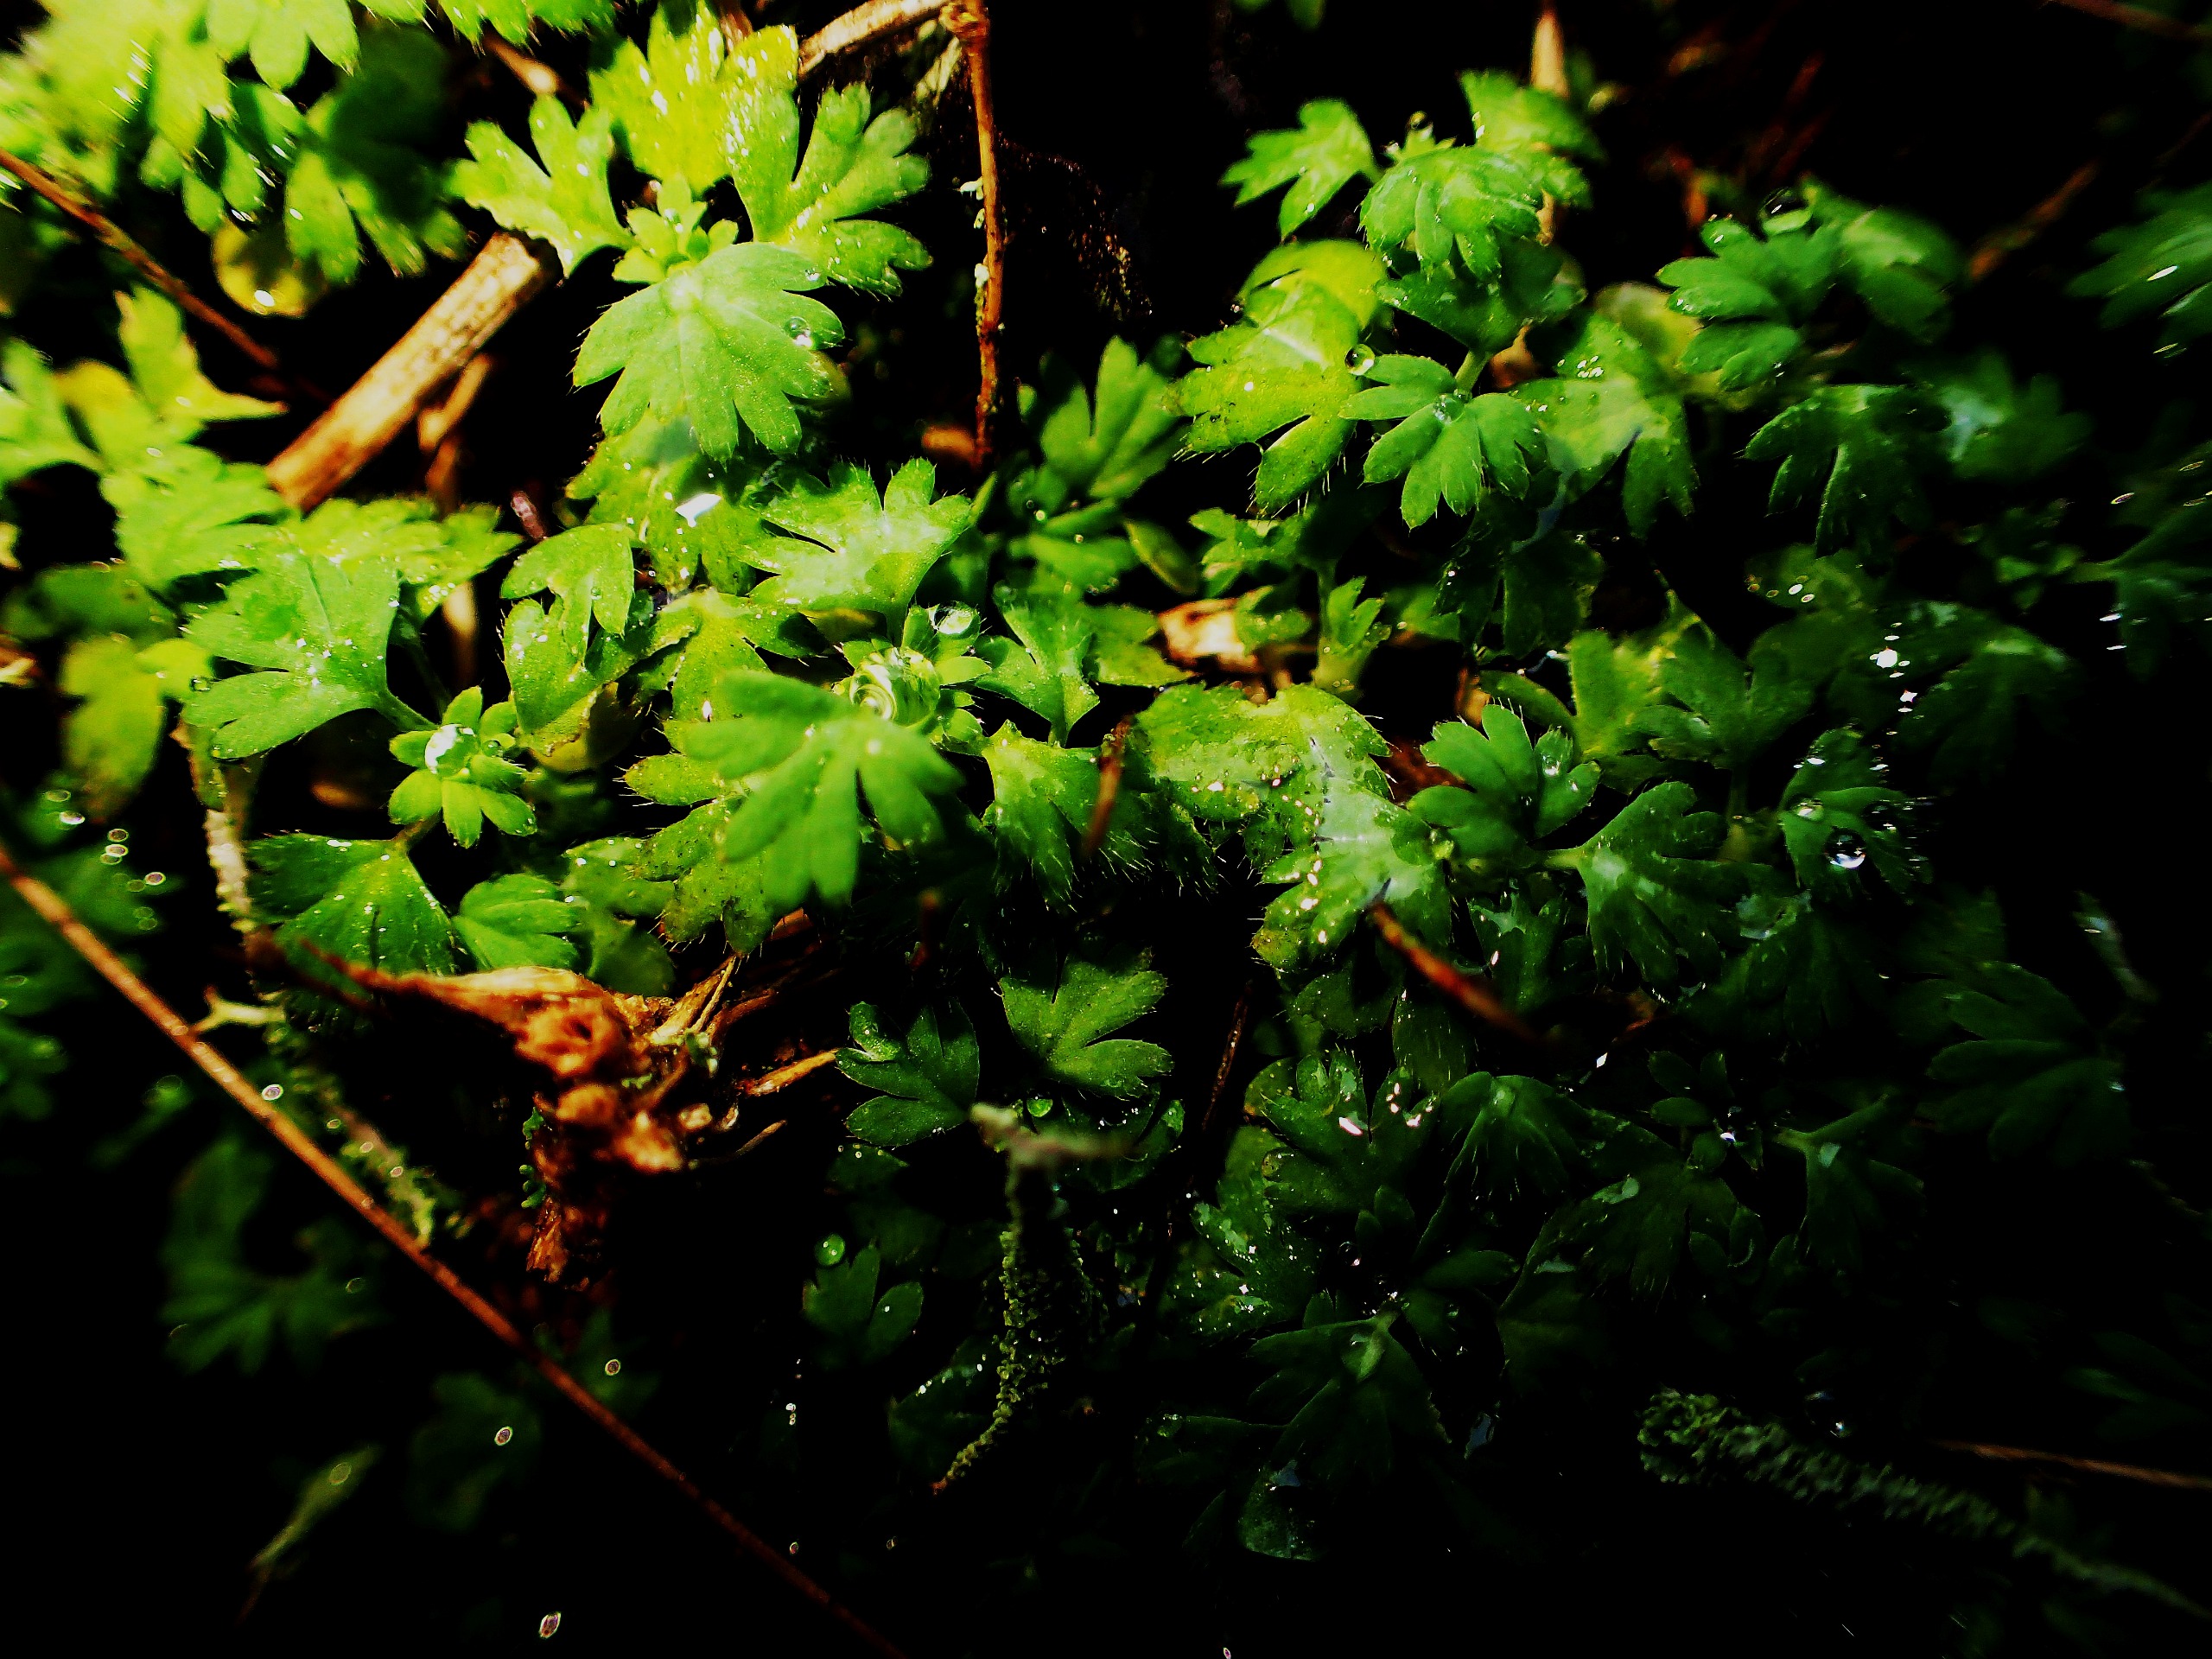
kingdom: Plantae
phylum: Tracheophyta
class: Magnoliopsida
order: Rosales
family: Rosaceae
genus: Aphanes
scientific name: Aphanes arvensis
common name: Dværgløvefod
